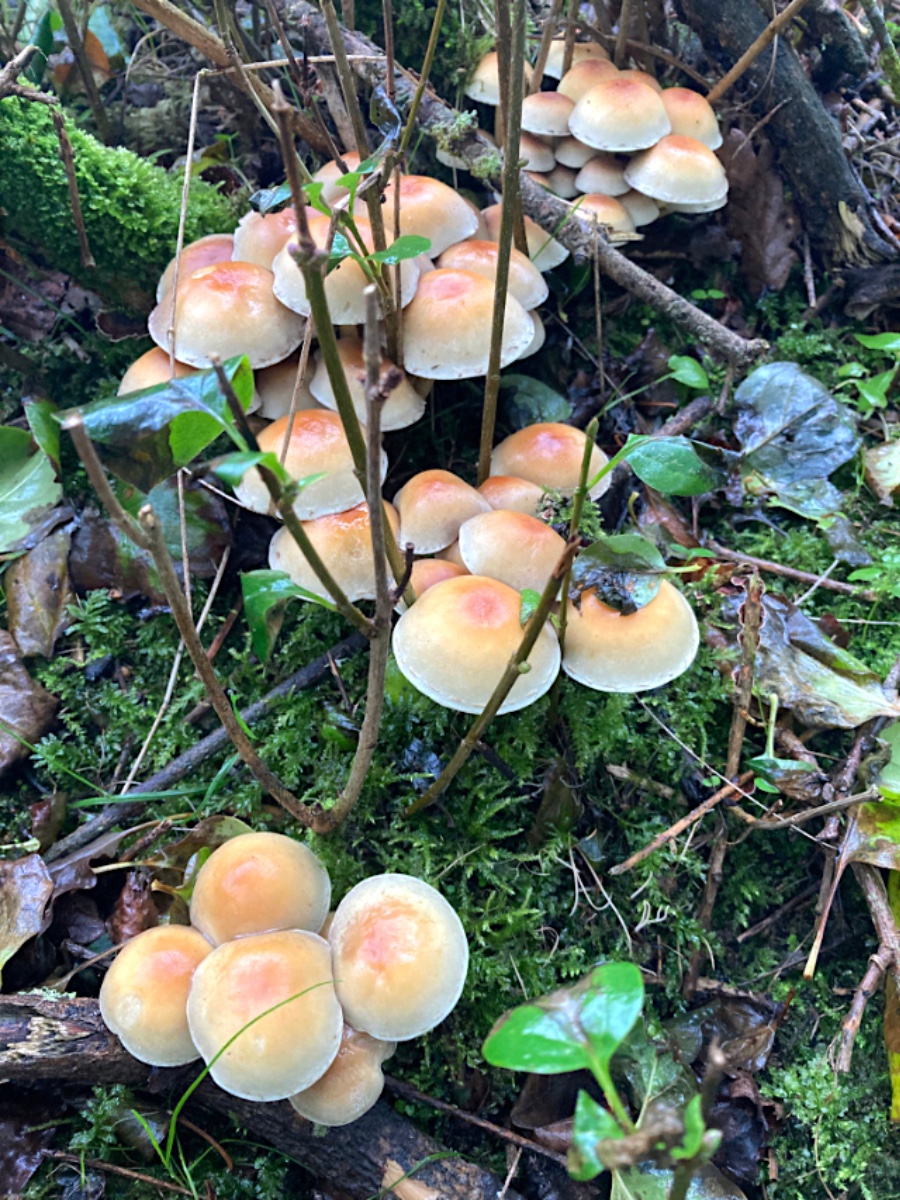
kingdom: Fungi
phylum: Basidiomycota
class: Agaricomycetes
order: Agaricales
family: Strophariaceae
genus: Hypholoma
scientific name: Hypholoma capnoides
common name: gran-svovlhat
